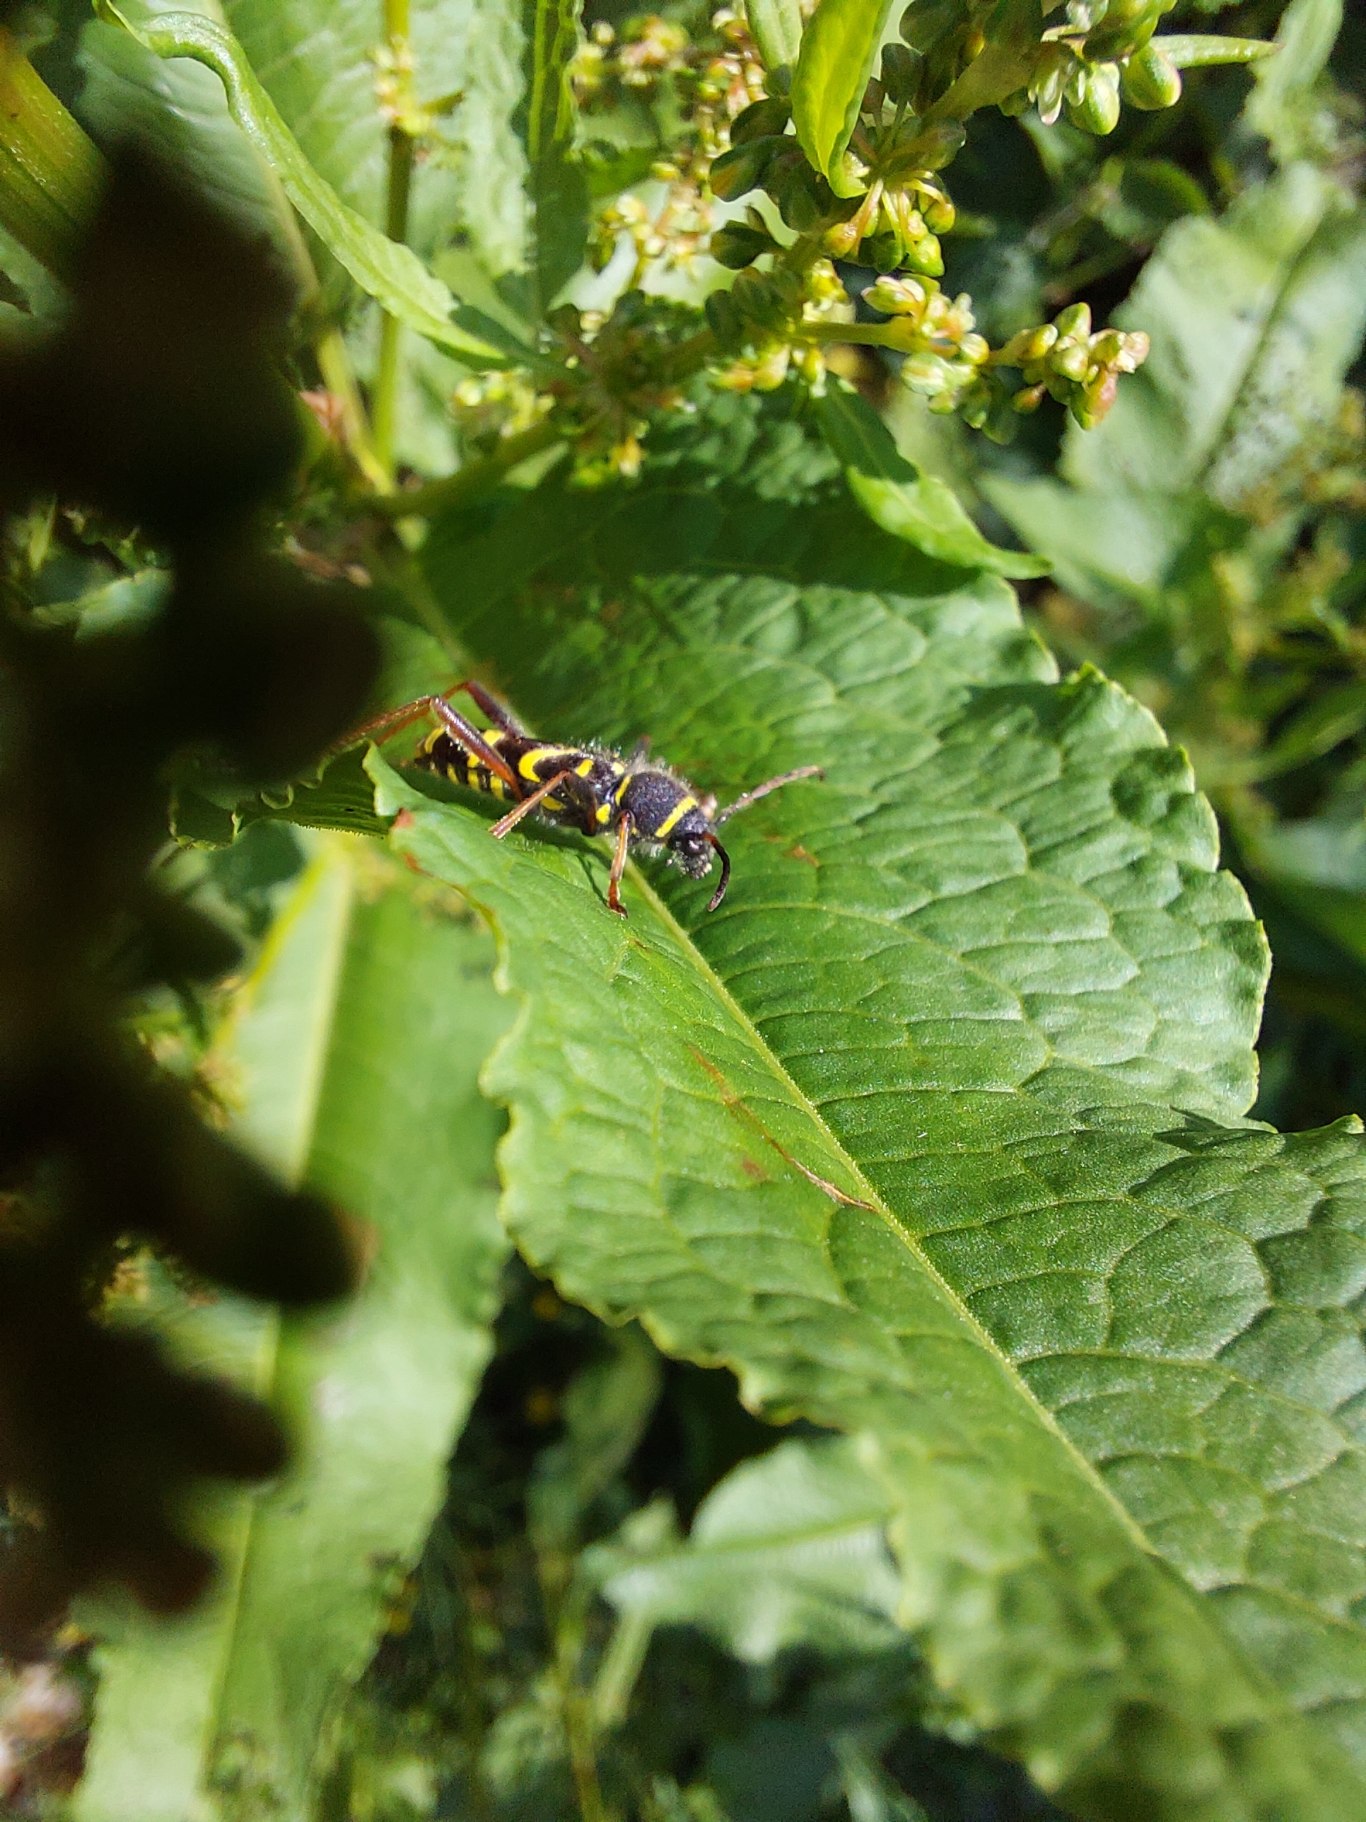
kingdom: Animalia
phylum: Arthropoda
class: Insecta
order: Coleoptera
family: Cerambycidae
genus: Clytus
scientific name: Clytus arietis
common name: Lille hvepsebuk
